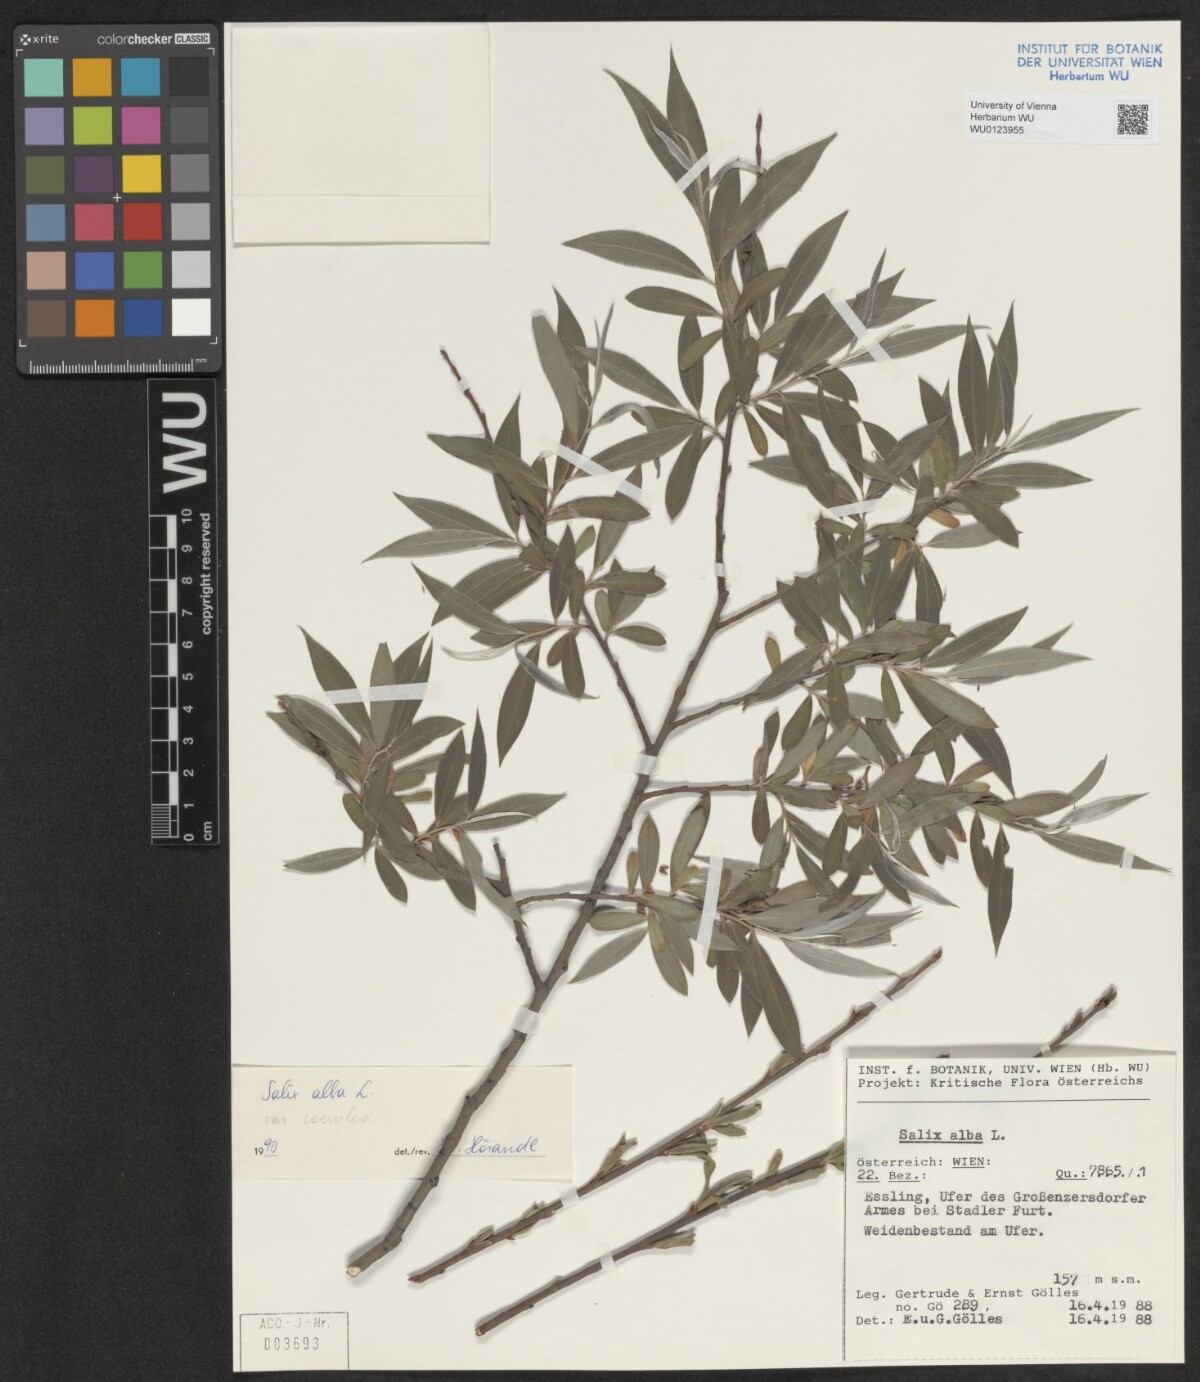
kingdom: Plantae
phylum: Tracheophyta
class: Magnoliopsida
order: Malpighiales
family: Salicaceae
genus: Salix
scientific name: Salix alba
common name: White willow
